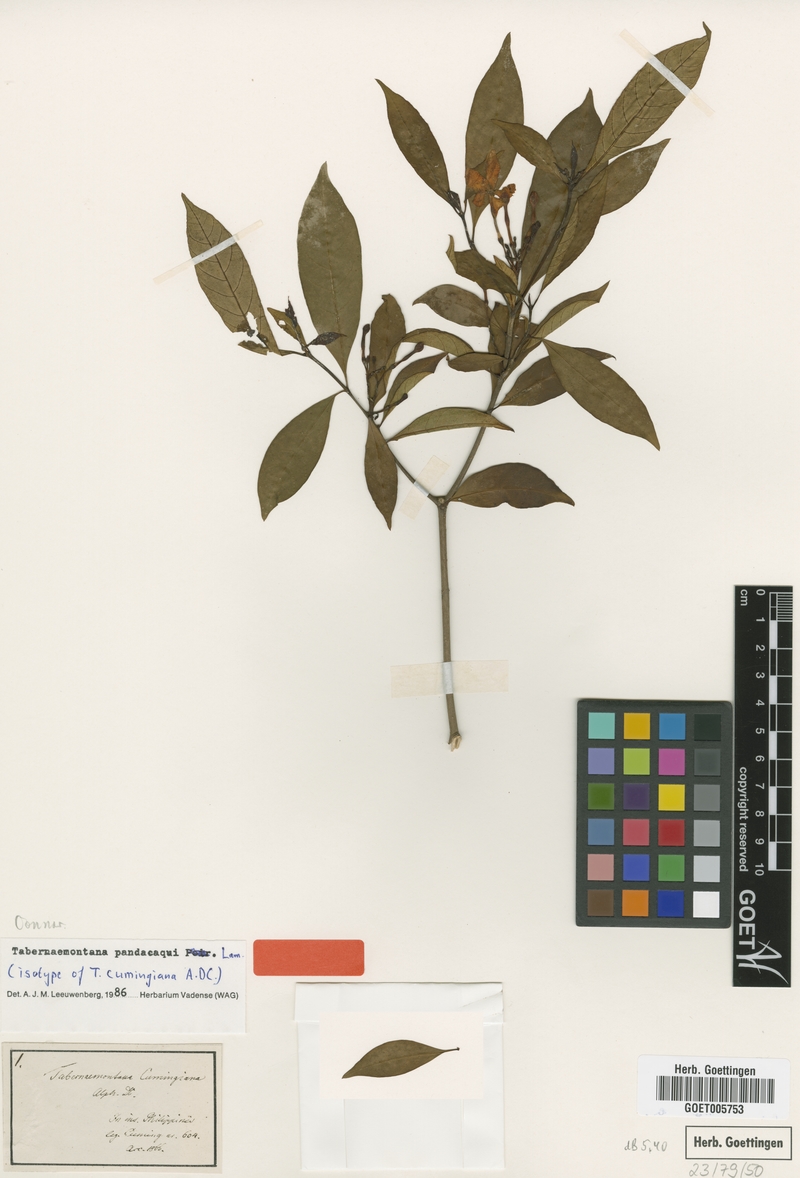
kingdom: Plantae
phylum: Tracheophyta
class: Magnoliopsida
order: Gentianales
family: Apocynaceae
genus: Tabernaemontana
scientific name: Tabernaemontana pandacaqui
